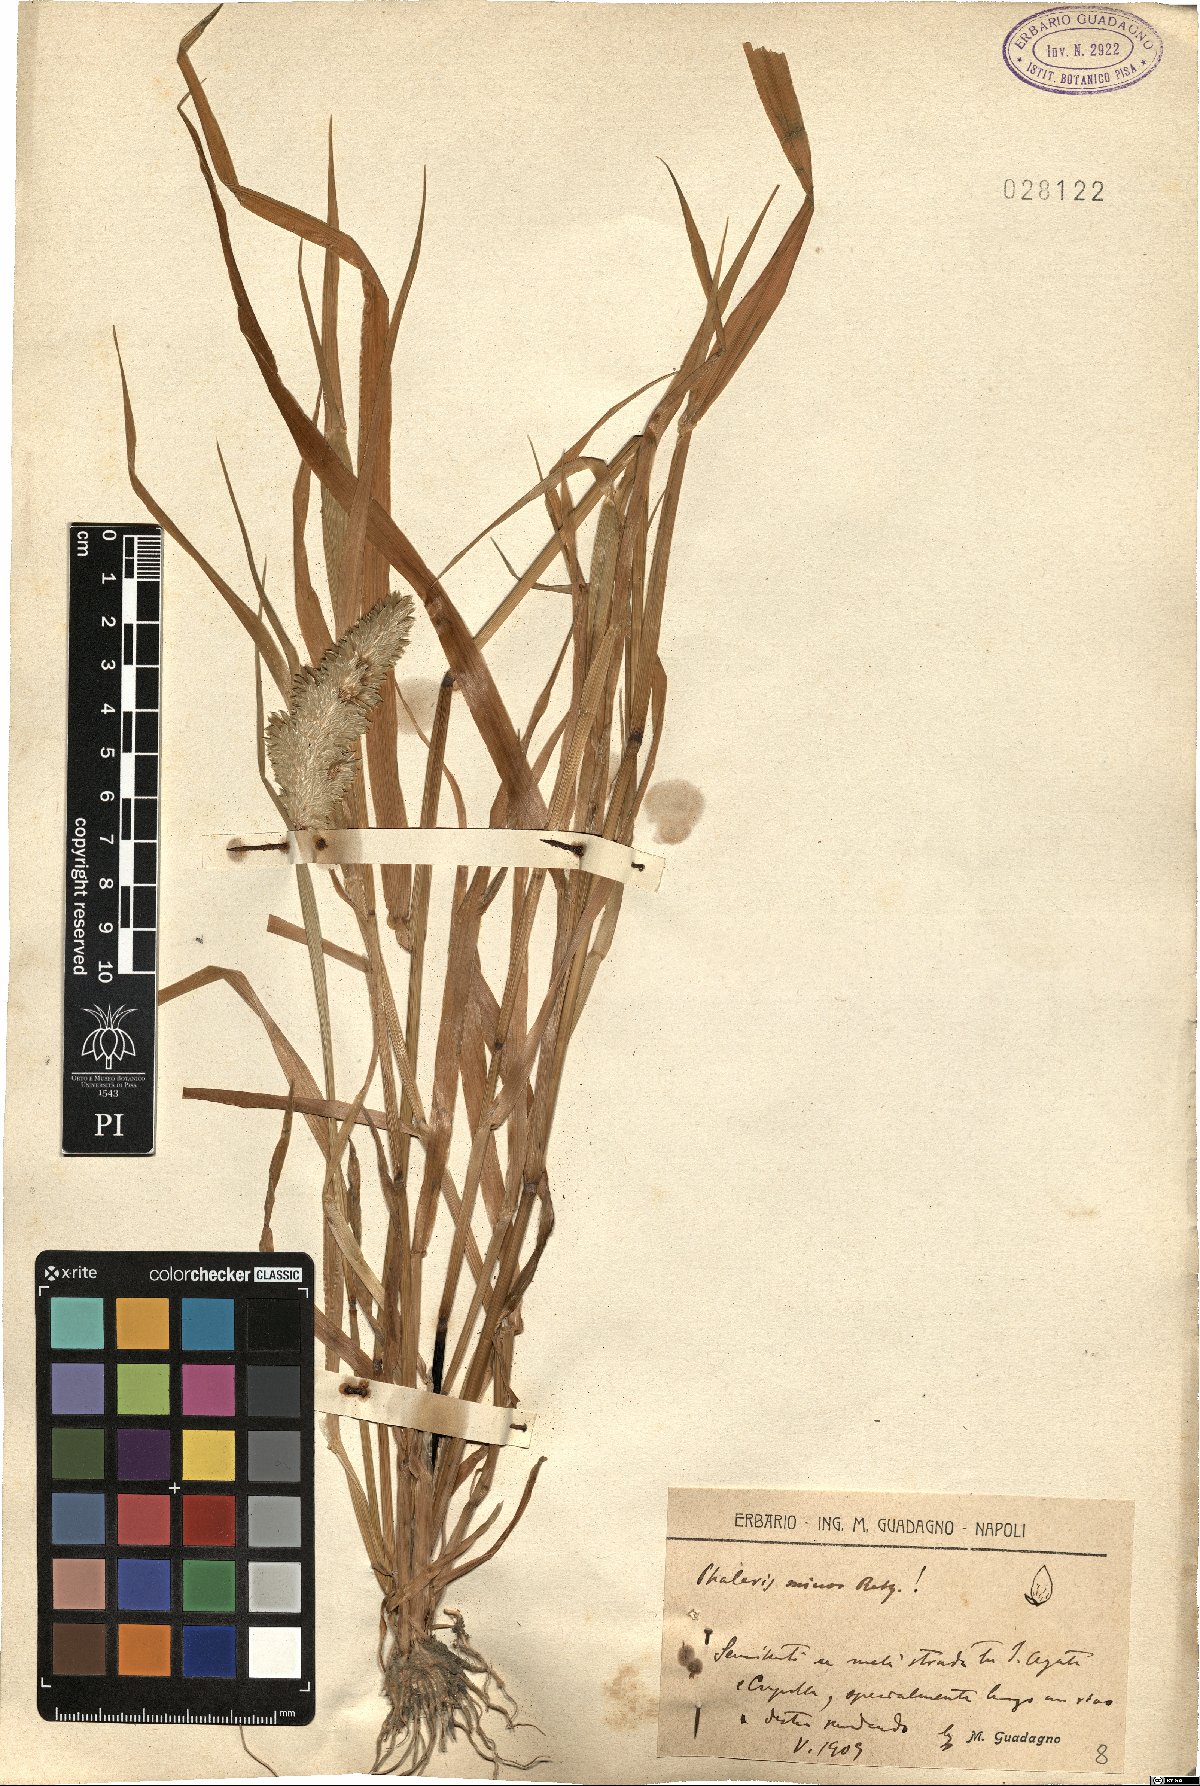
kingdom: Plantae
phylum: Tracheophyta
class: Liliopsida
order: Poales
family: Poaceae
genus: Phalaris
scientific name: Phalaris minor
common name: Littleseed canarygrass
